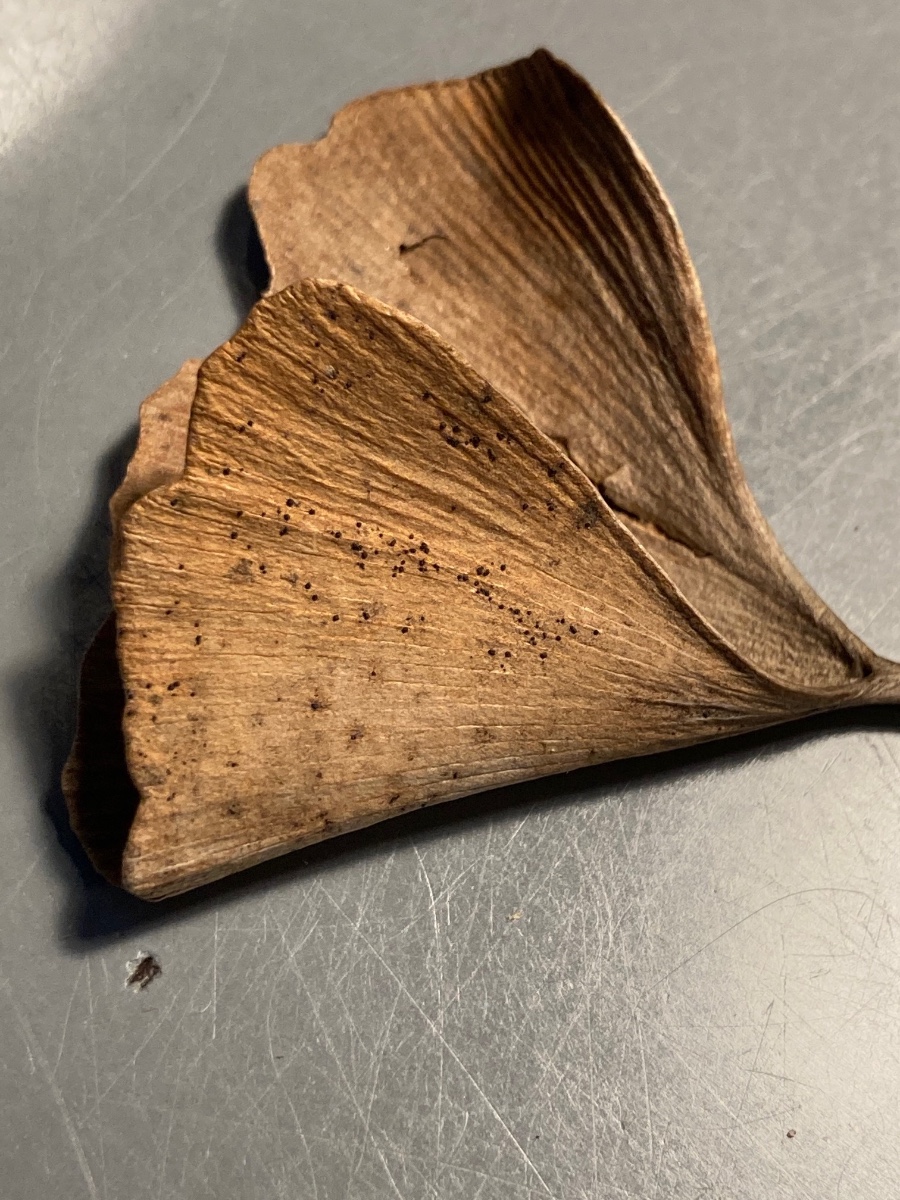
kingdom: Fungi
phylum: Basidiomycota
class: Wallemiomycetes
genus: Bartheletia
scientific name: Bartheletia paradoxa
